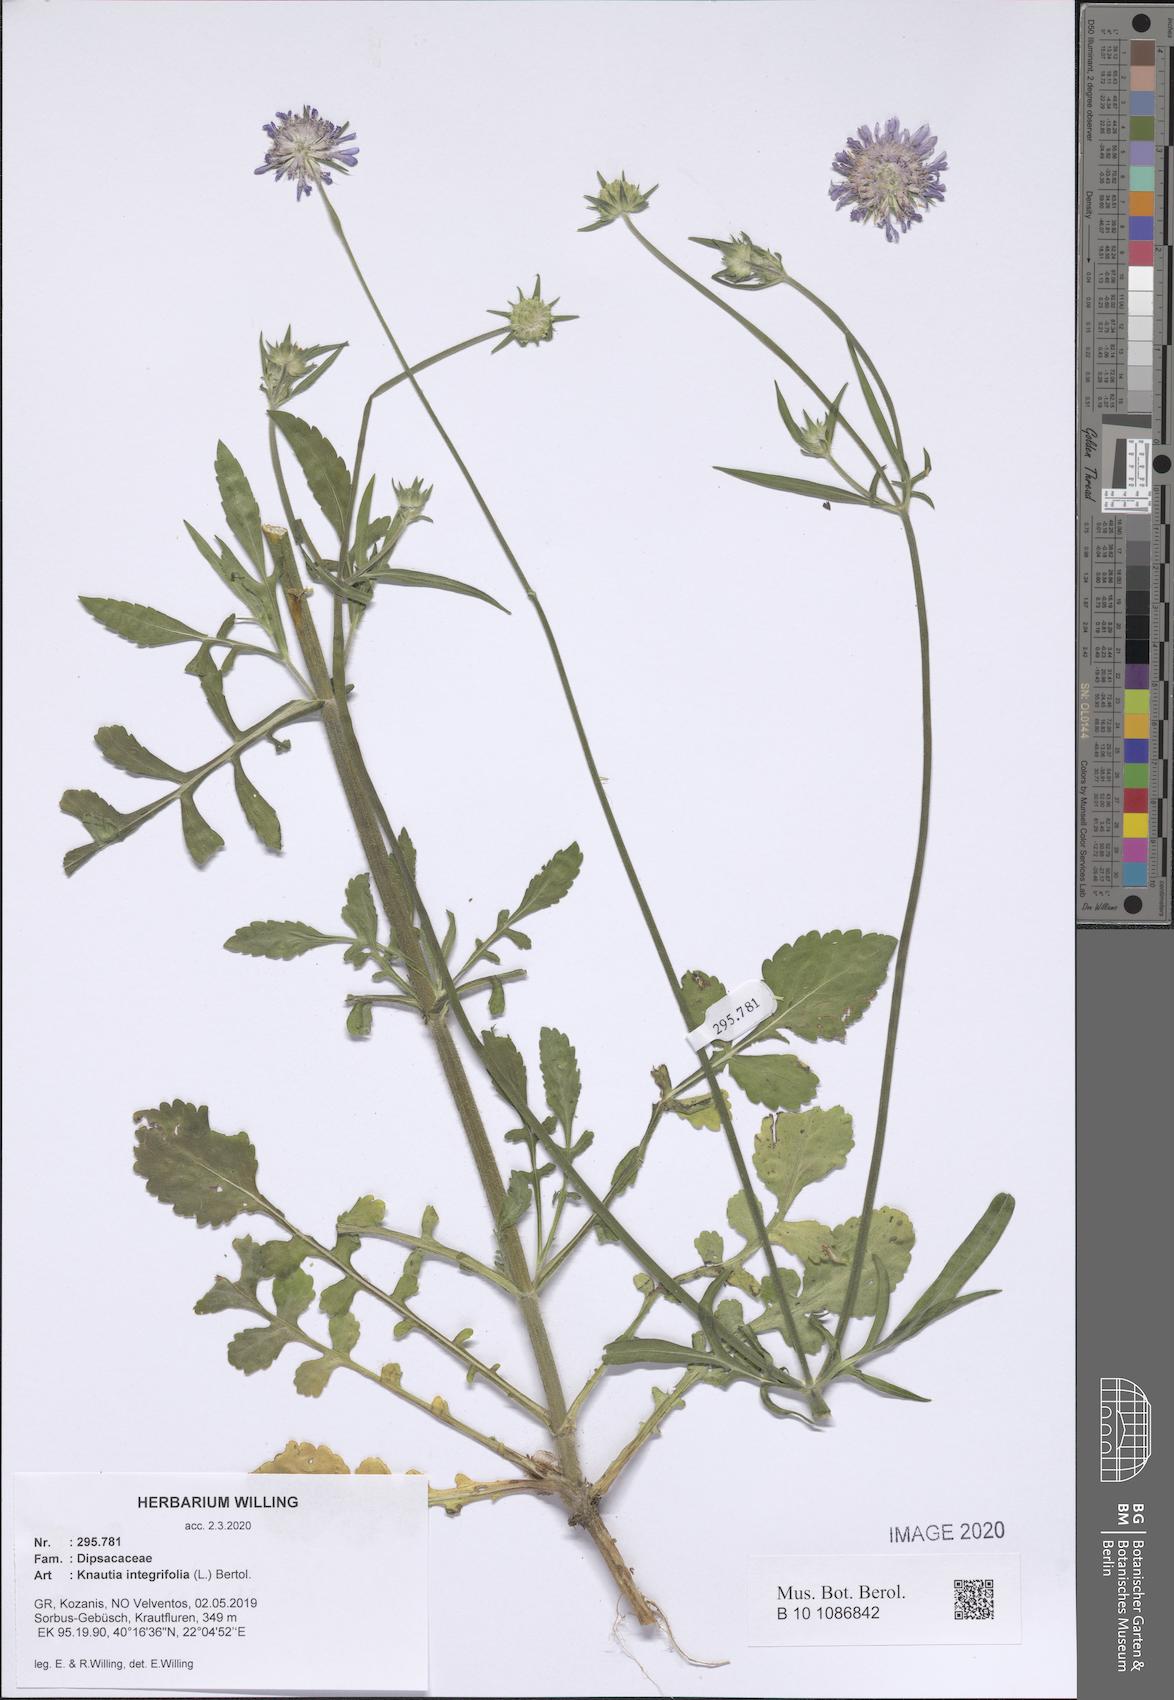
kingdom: Plantae
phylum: Tracheophyta
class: Magnoliopsida
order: Dipsacales
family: Caprifoliaceae
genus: Knautia
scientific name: Knautia integrifolia
